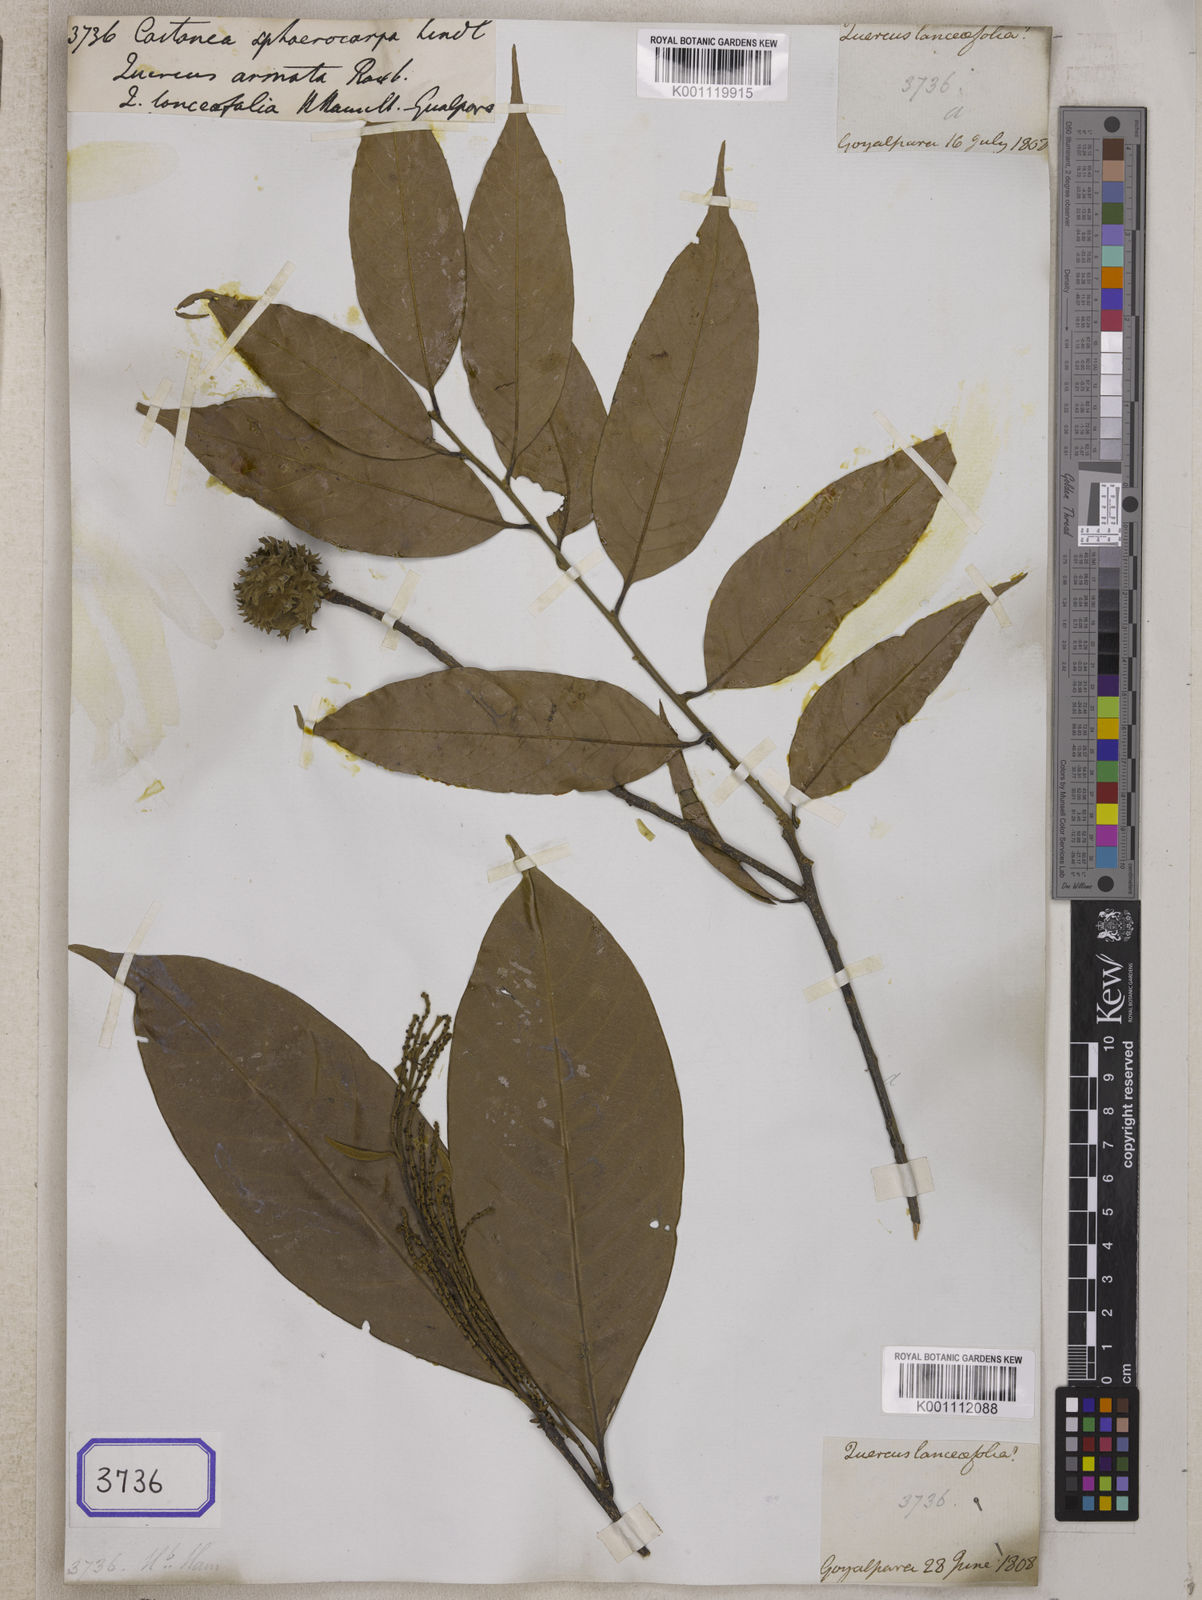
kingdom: Plantae
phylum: Tracheophyta
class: Magnoliopsida
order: Fagales
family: Fagaceae
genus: Castanopsis
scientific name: Castanopsis armata
